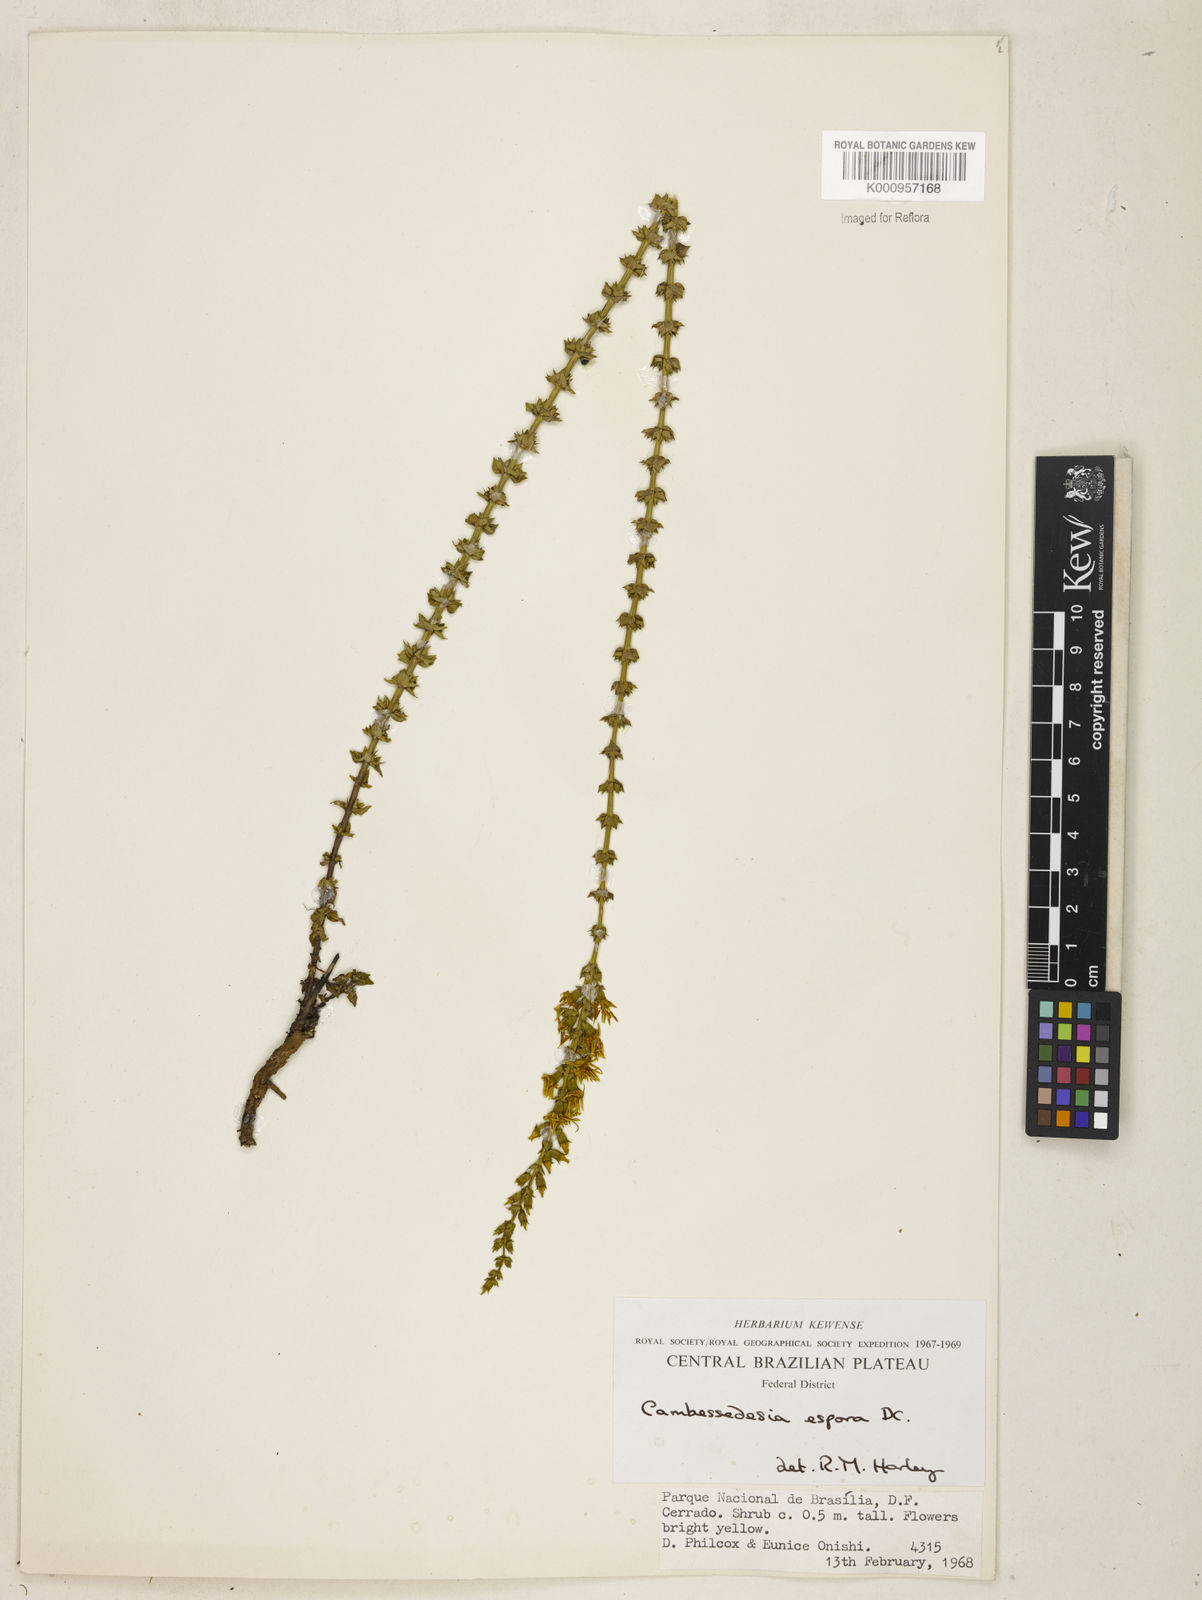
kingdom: Plantae
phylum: Tracheophyta
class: Magnoliopsida
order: Myrtales
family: Melastomataceae
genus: Cambessedesia
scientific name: Cambessedesia espora
